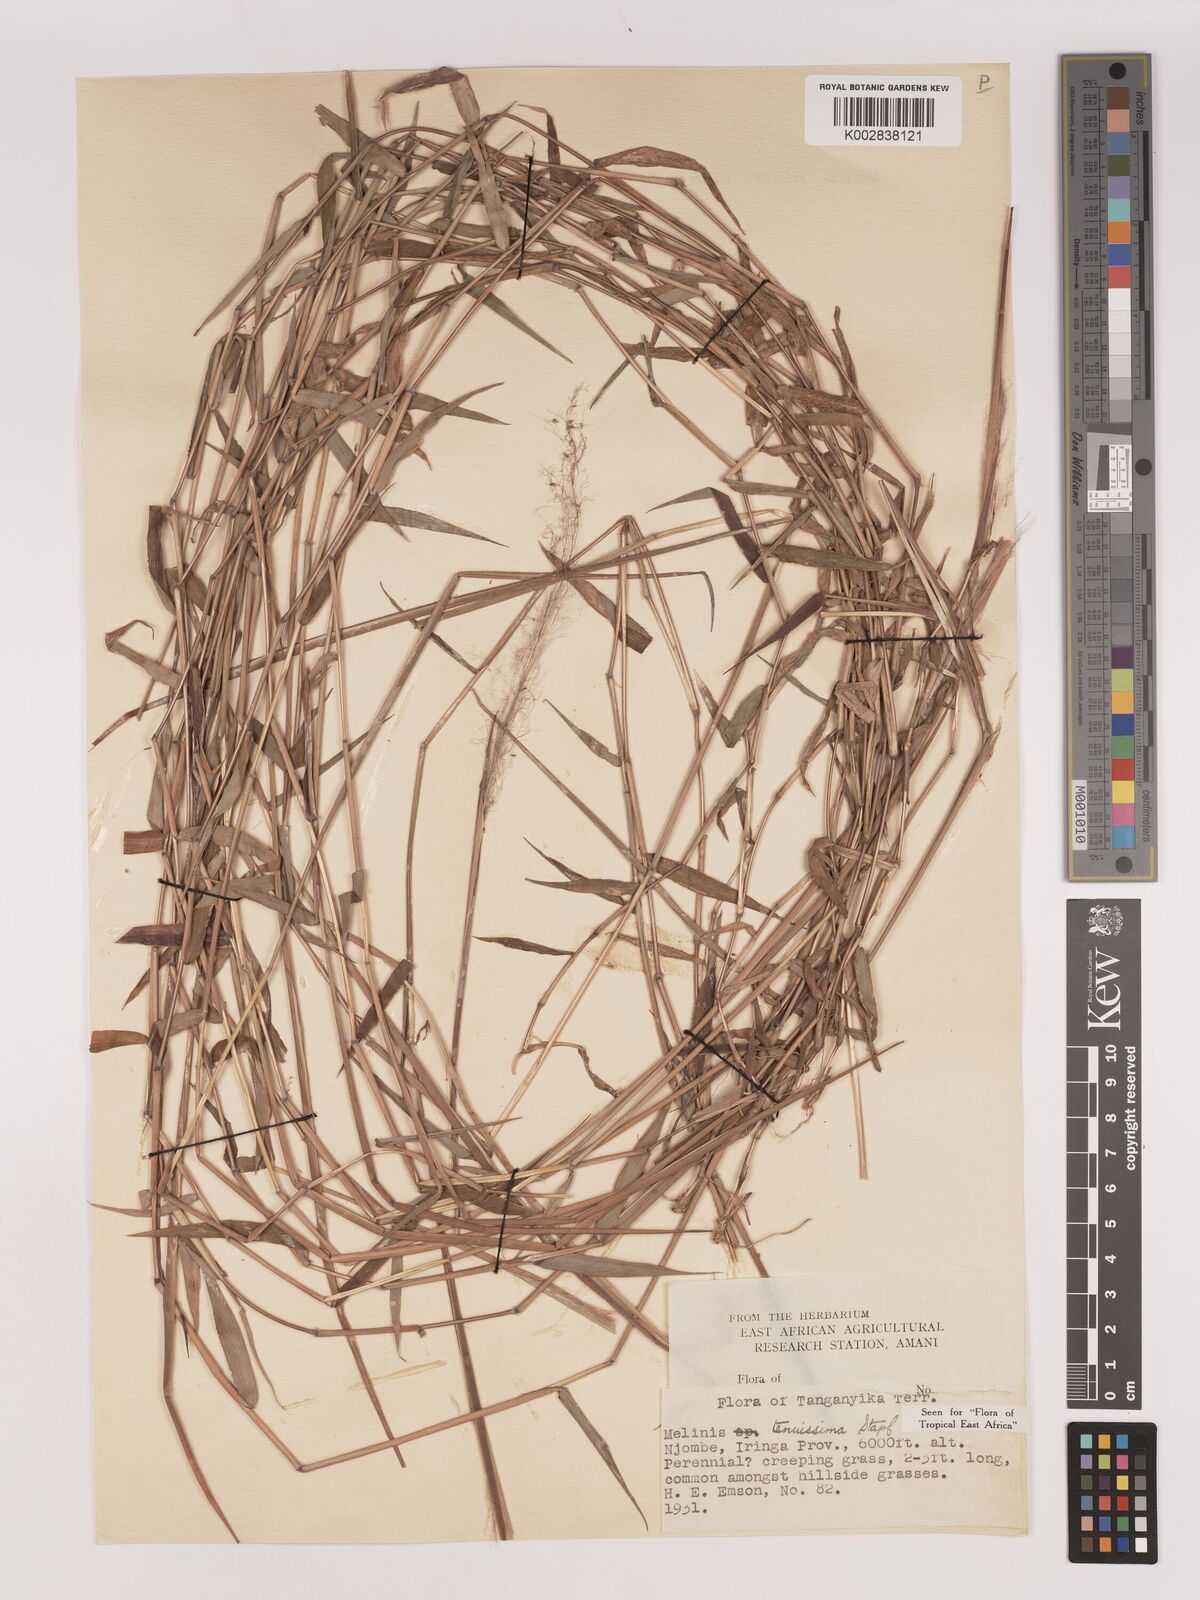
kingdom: Plantae
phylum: Tracheophyta
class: Liliopsida
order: Poales
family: Poaceae
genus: Melinis
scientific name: Melinis tenuissima
